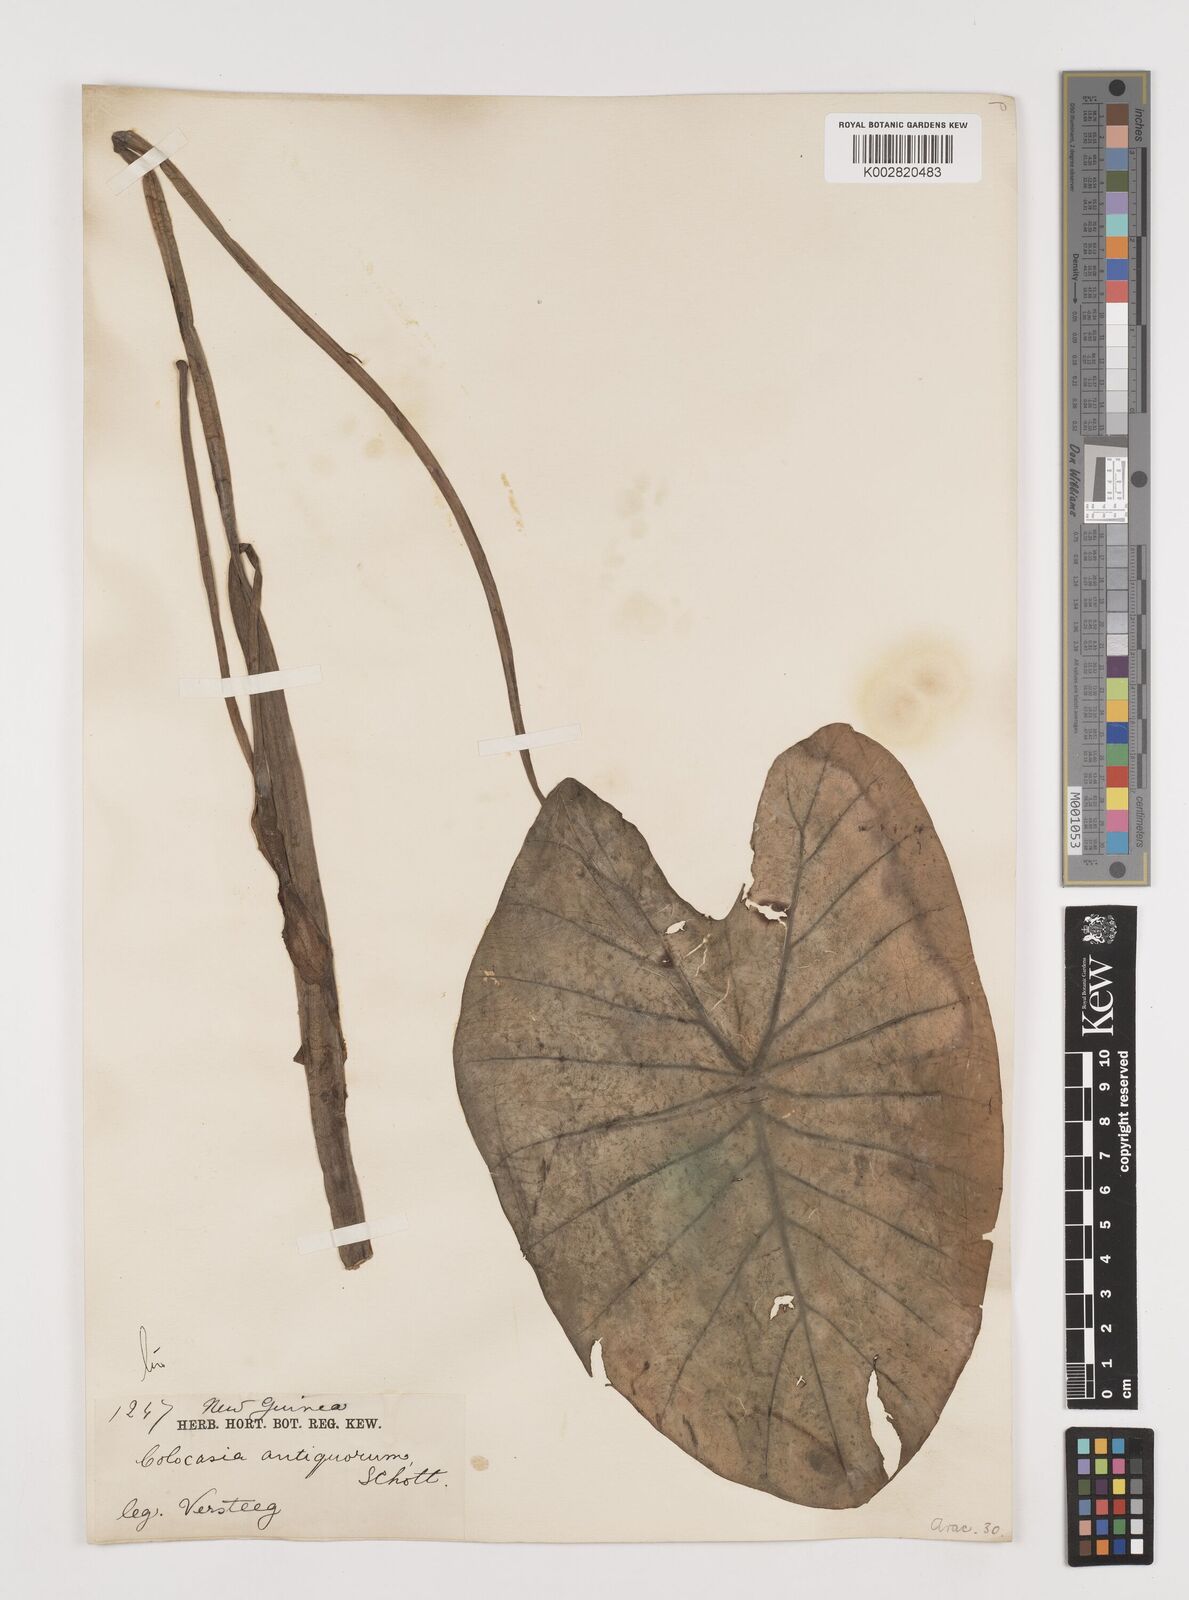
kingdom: Plantae
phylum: Tracheophyta
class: Liliopsida
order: Alismatales
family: Araceae
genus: Colocasia
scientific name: Colocasia esculenta
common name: Taro
